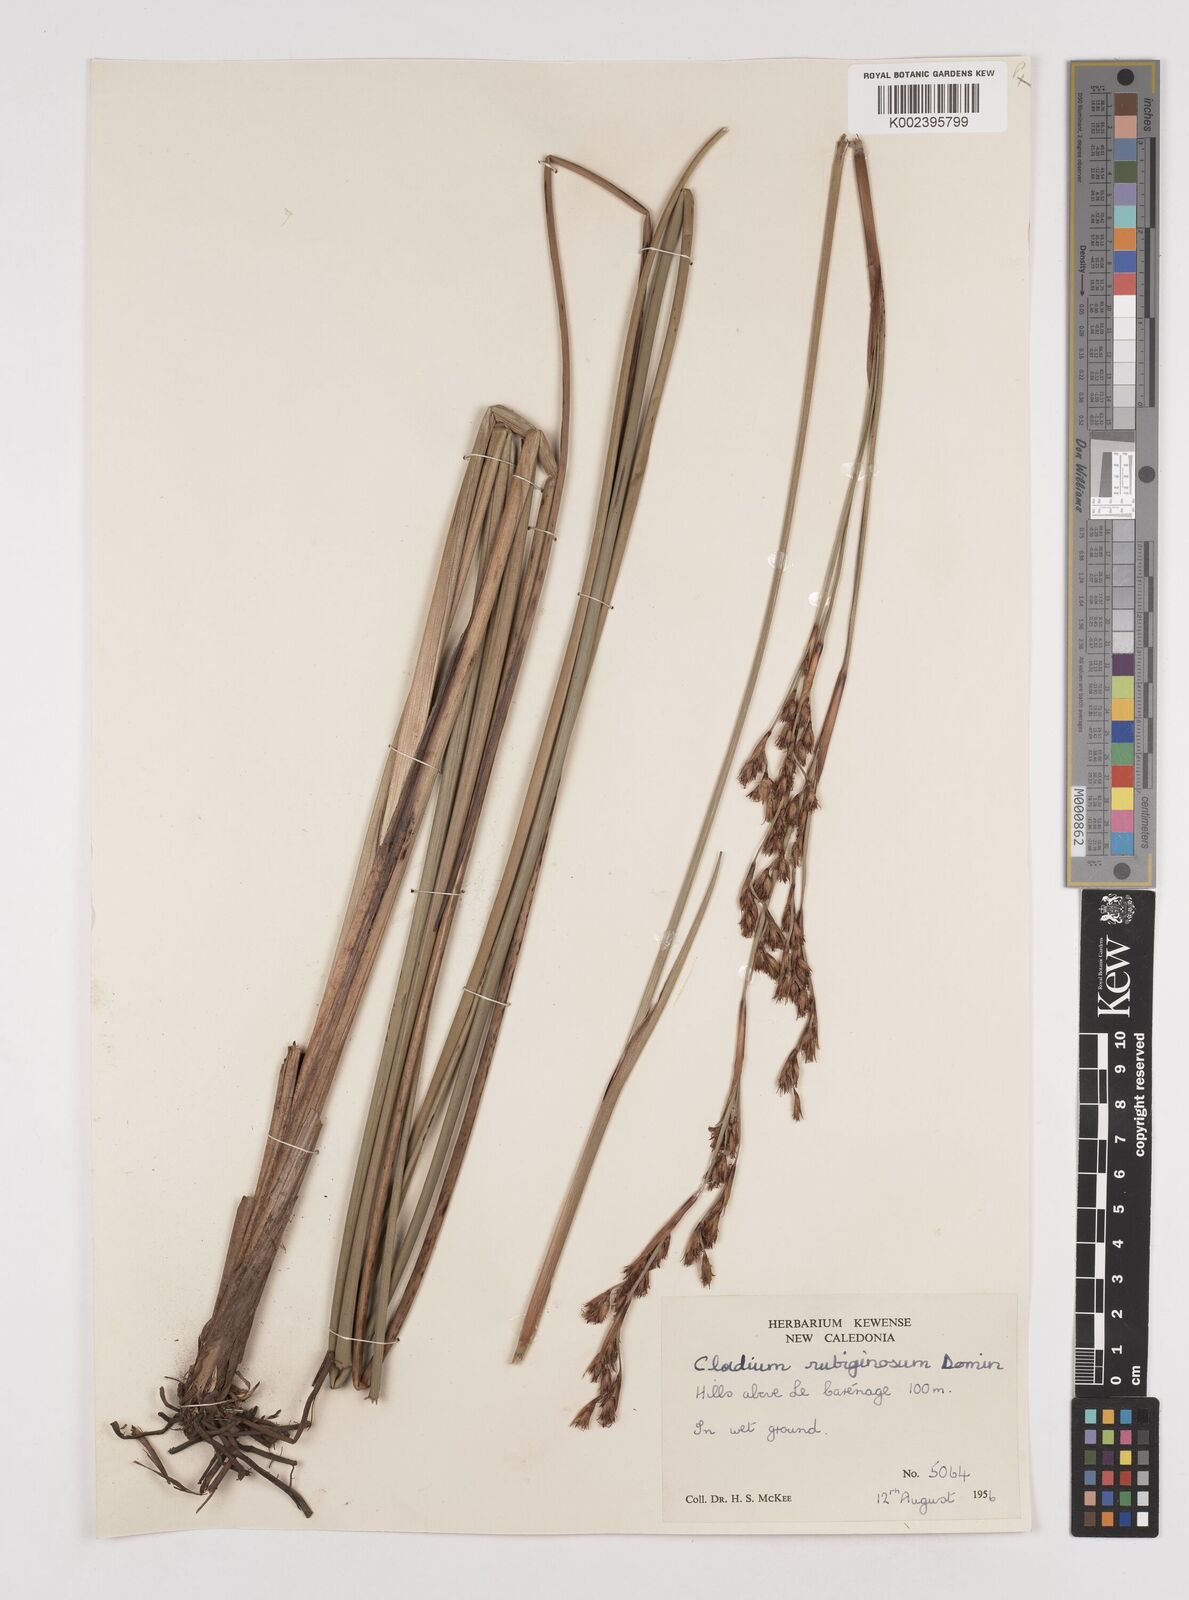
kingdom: Plantae
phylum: Tracheophyta
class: Liliopsida
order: Poales
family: Cyperaceae
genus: Machaerina
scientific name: Machaerina rubiginosa
